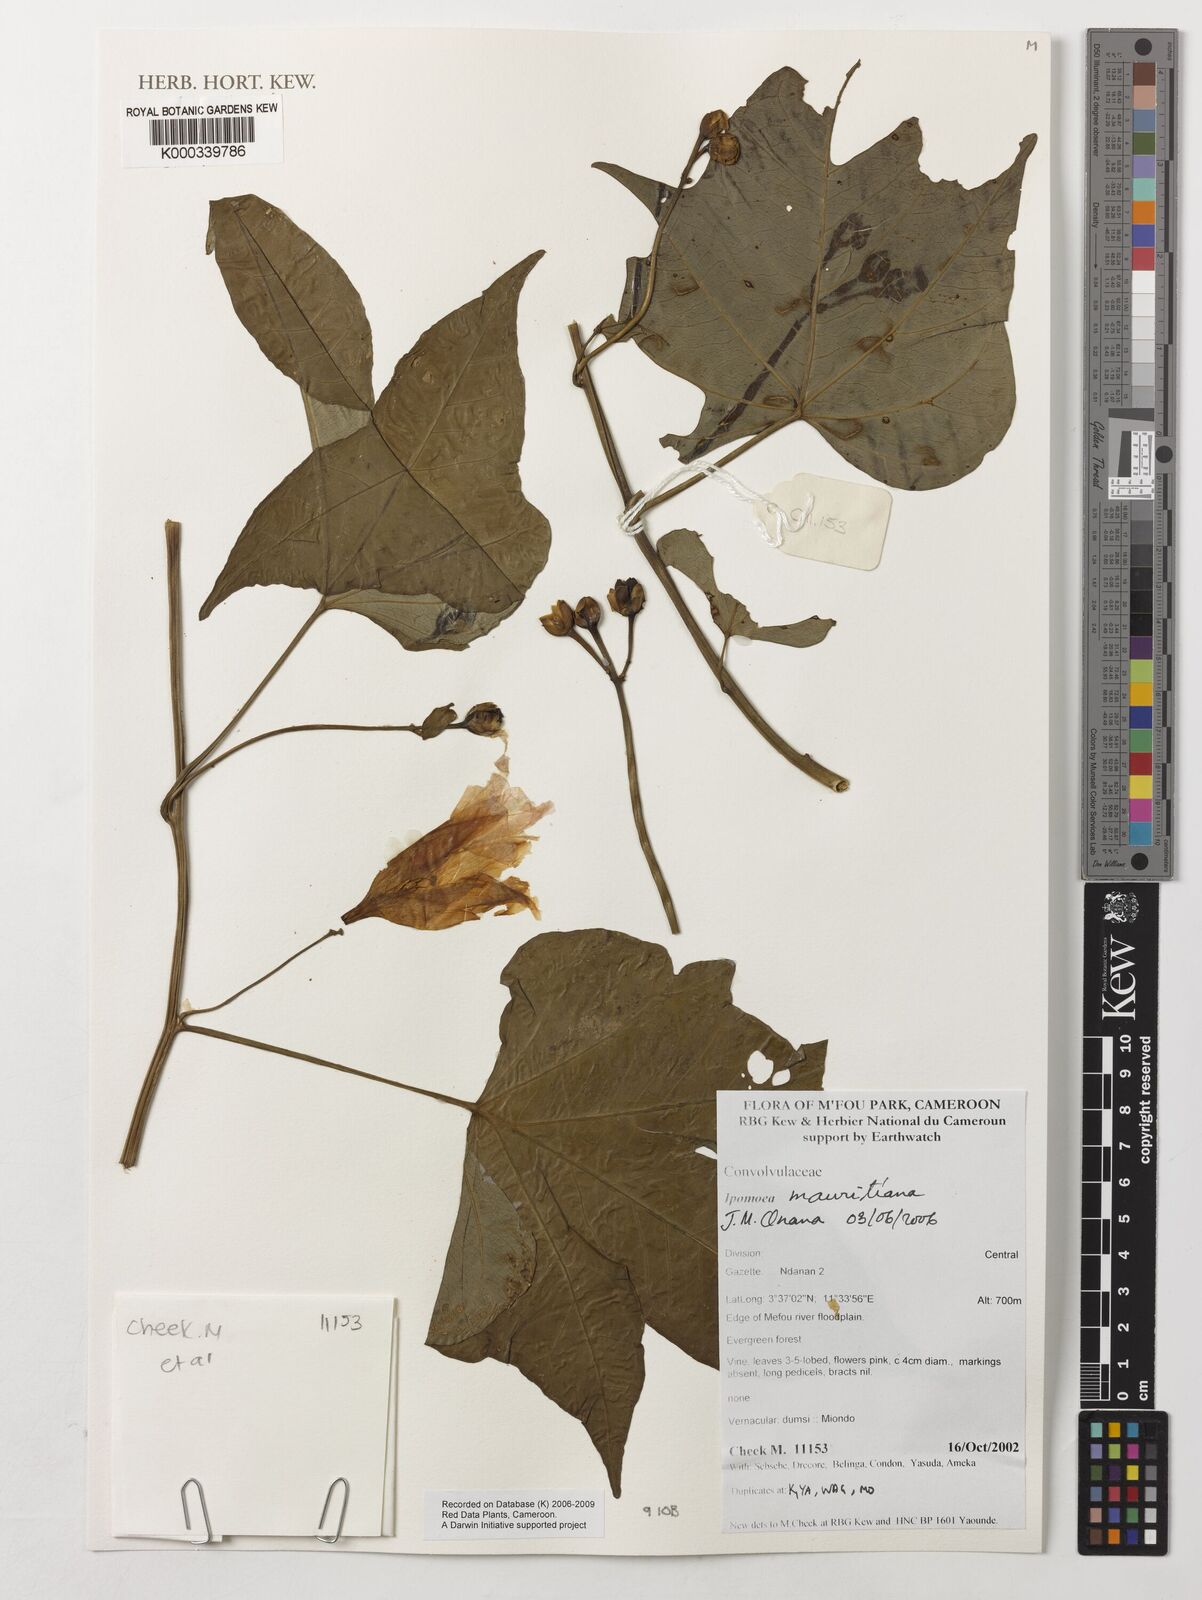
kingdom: Plantae
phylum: Tracheophyta
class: Magnoliopsida
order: Solanales
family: Convolvulaceae
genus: Ipomoea
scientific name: Ipomoea mauritiana
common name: Mauritanian convolvulus
